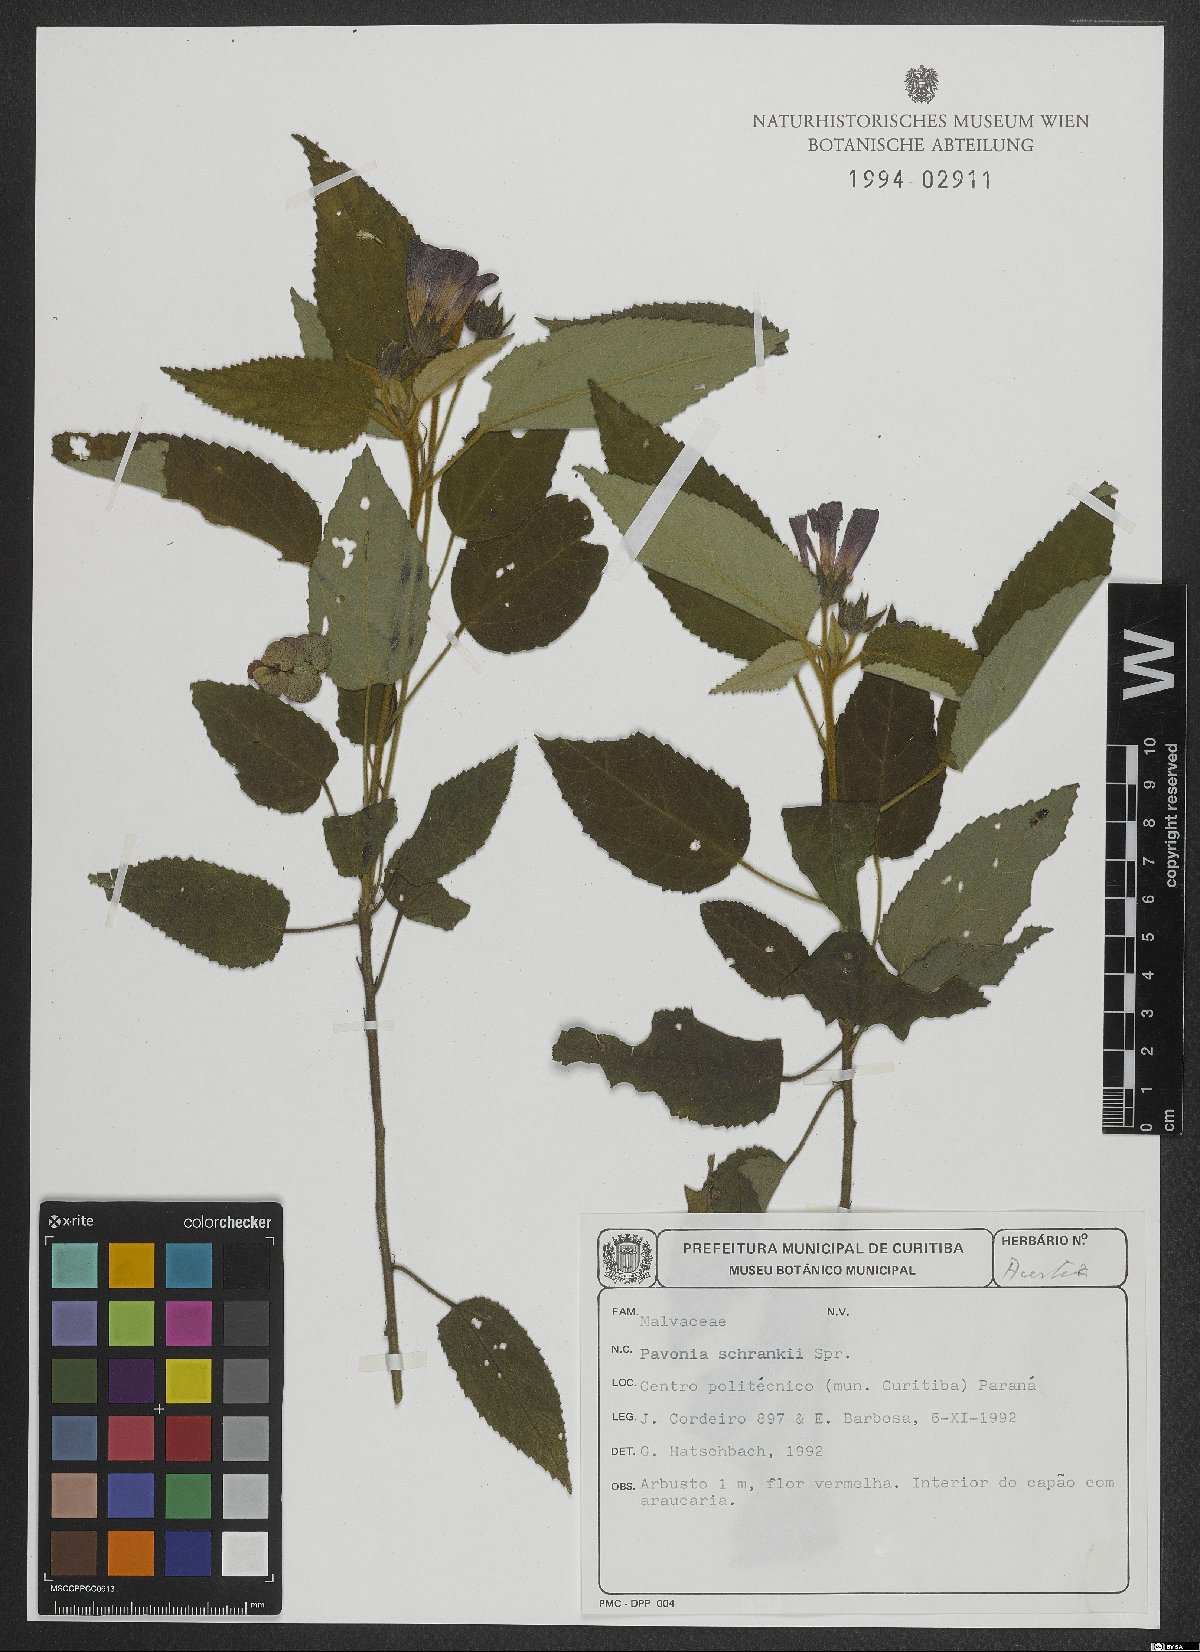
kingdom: Plantae
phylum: Tracheophyta
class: Magnoliopsida
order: Malvales
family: Malvaceae
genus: Pavonia
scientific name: Pavonia schrankii
